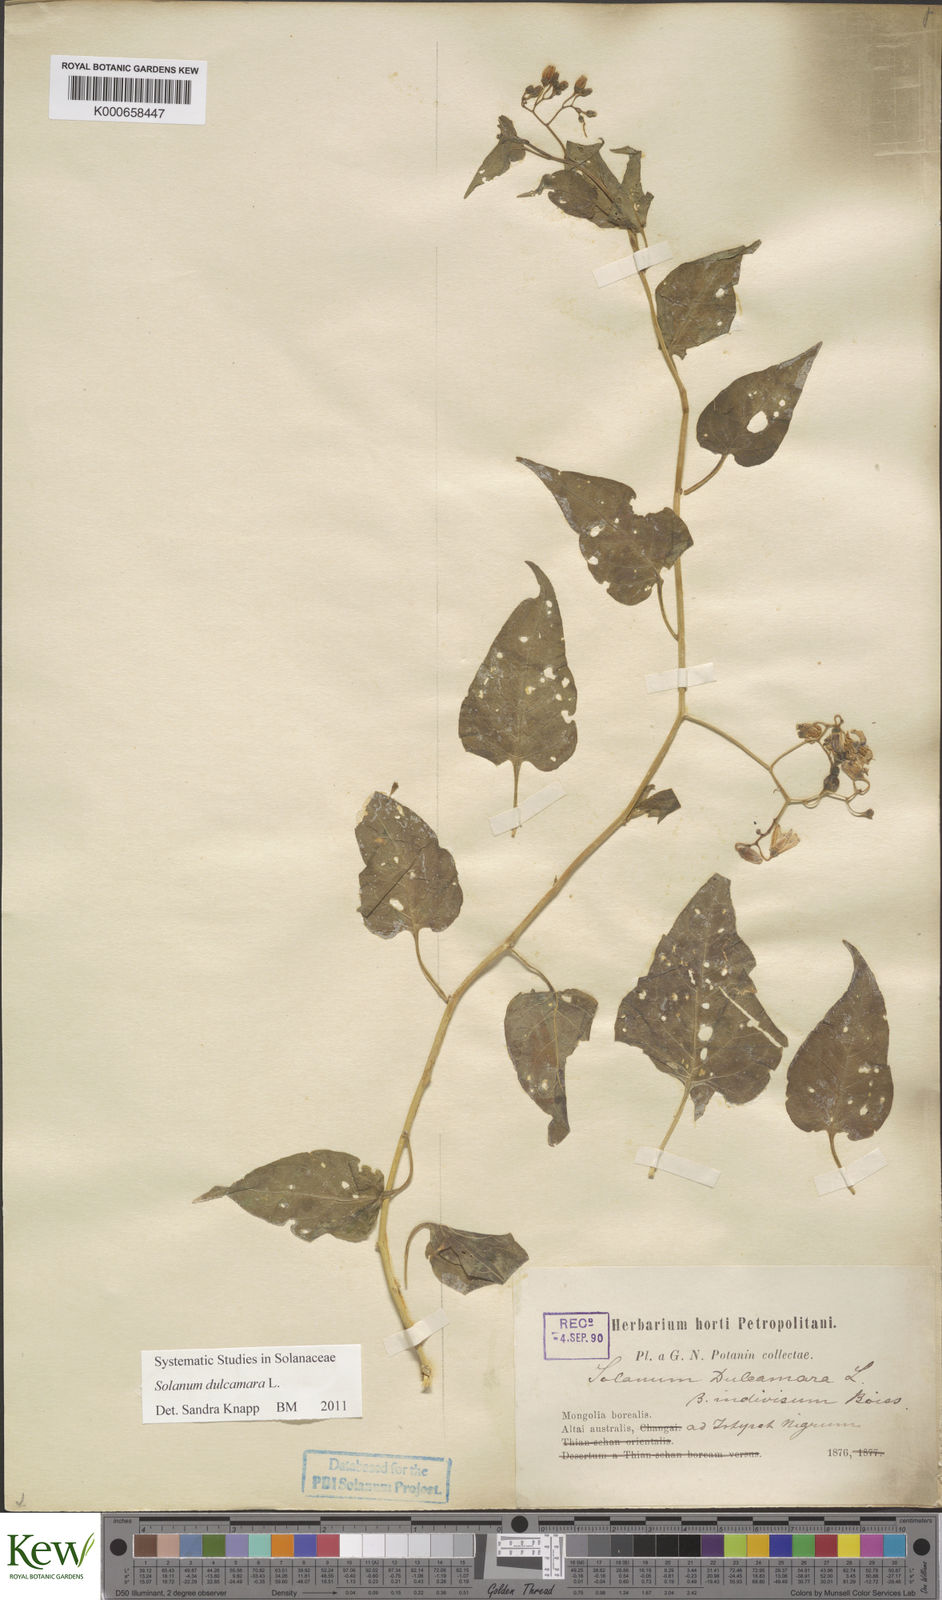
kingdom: Plantae
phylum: Tracheophyta
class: Magnoliopsida
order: Solanales
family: Solanaceae
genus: Solanum
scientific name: Solanum dulcamara
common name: Climbing nightshade
